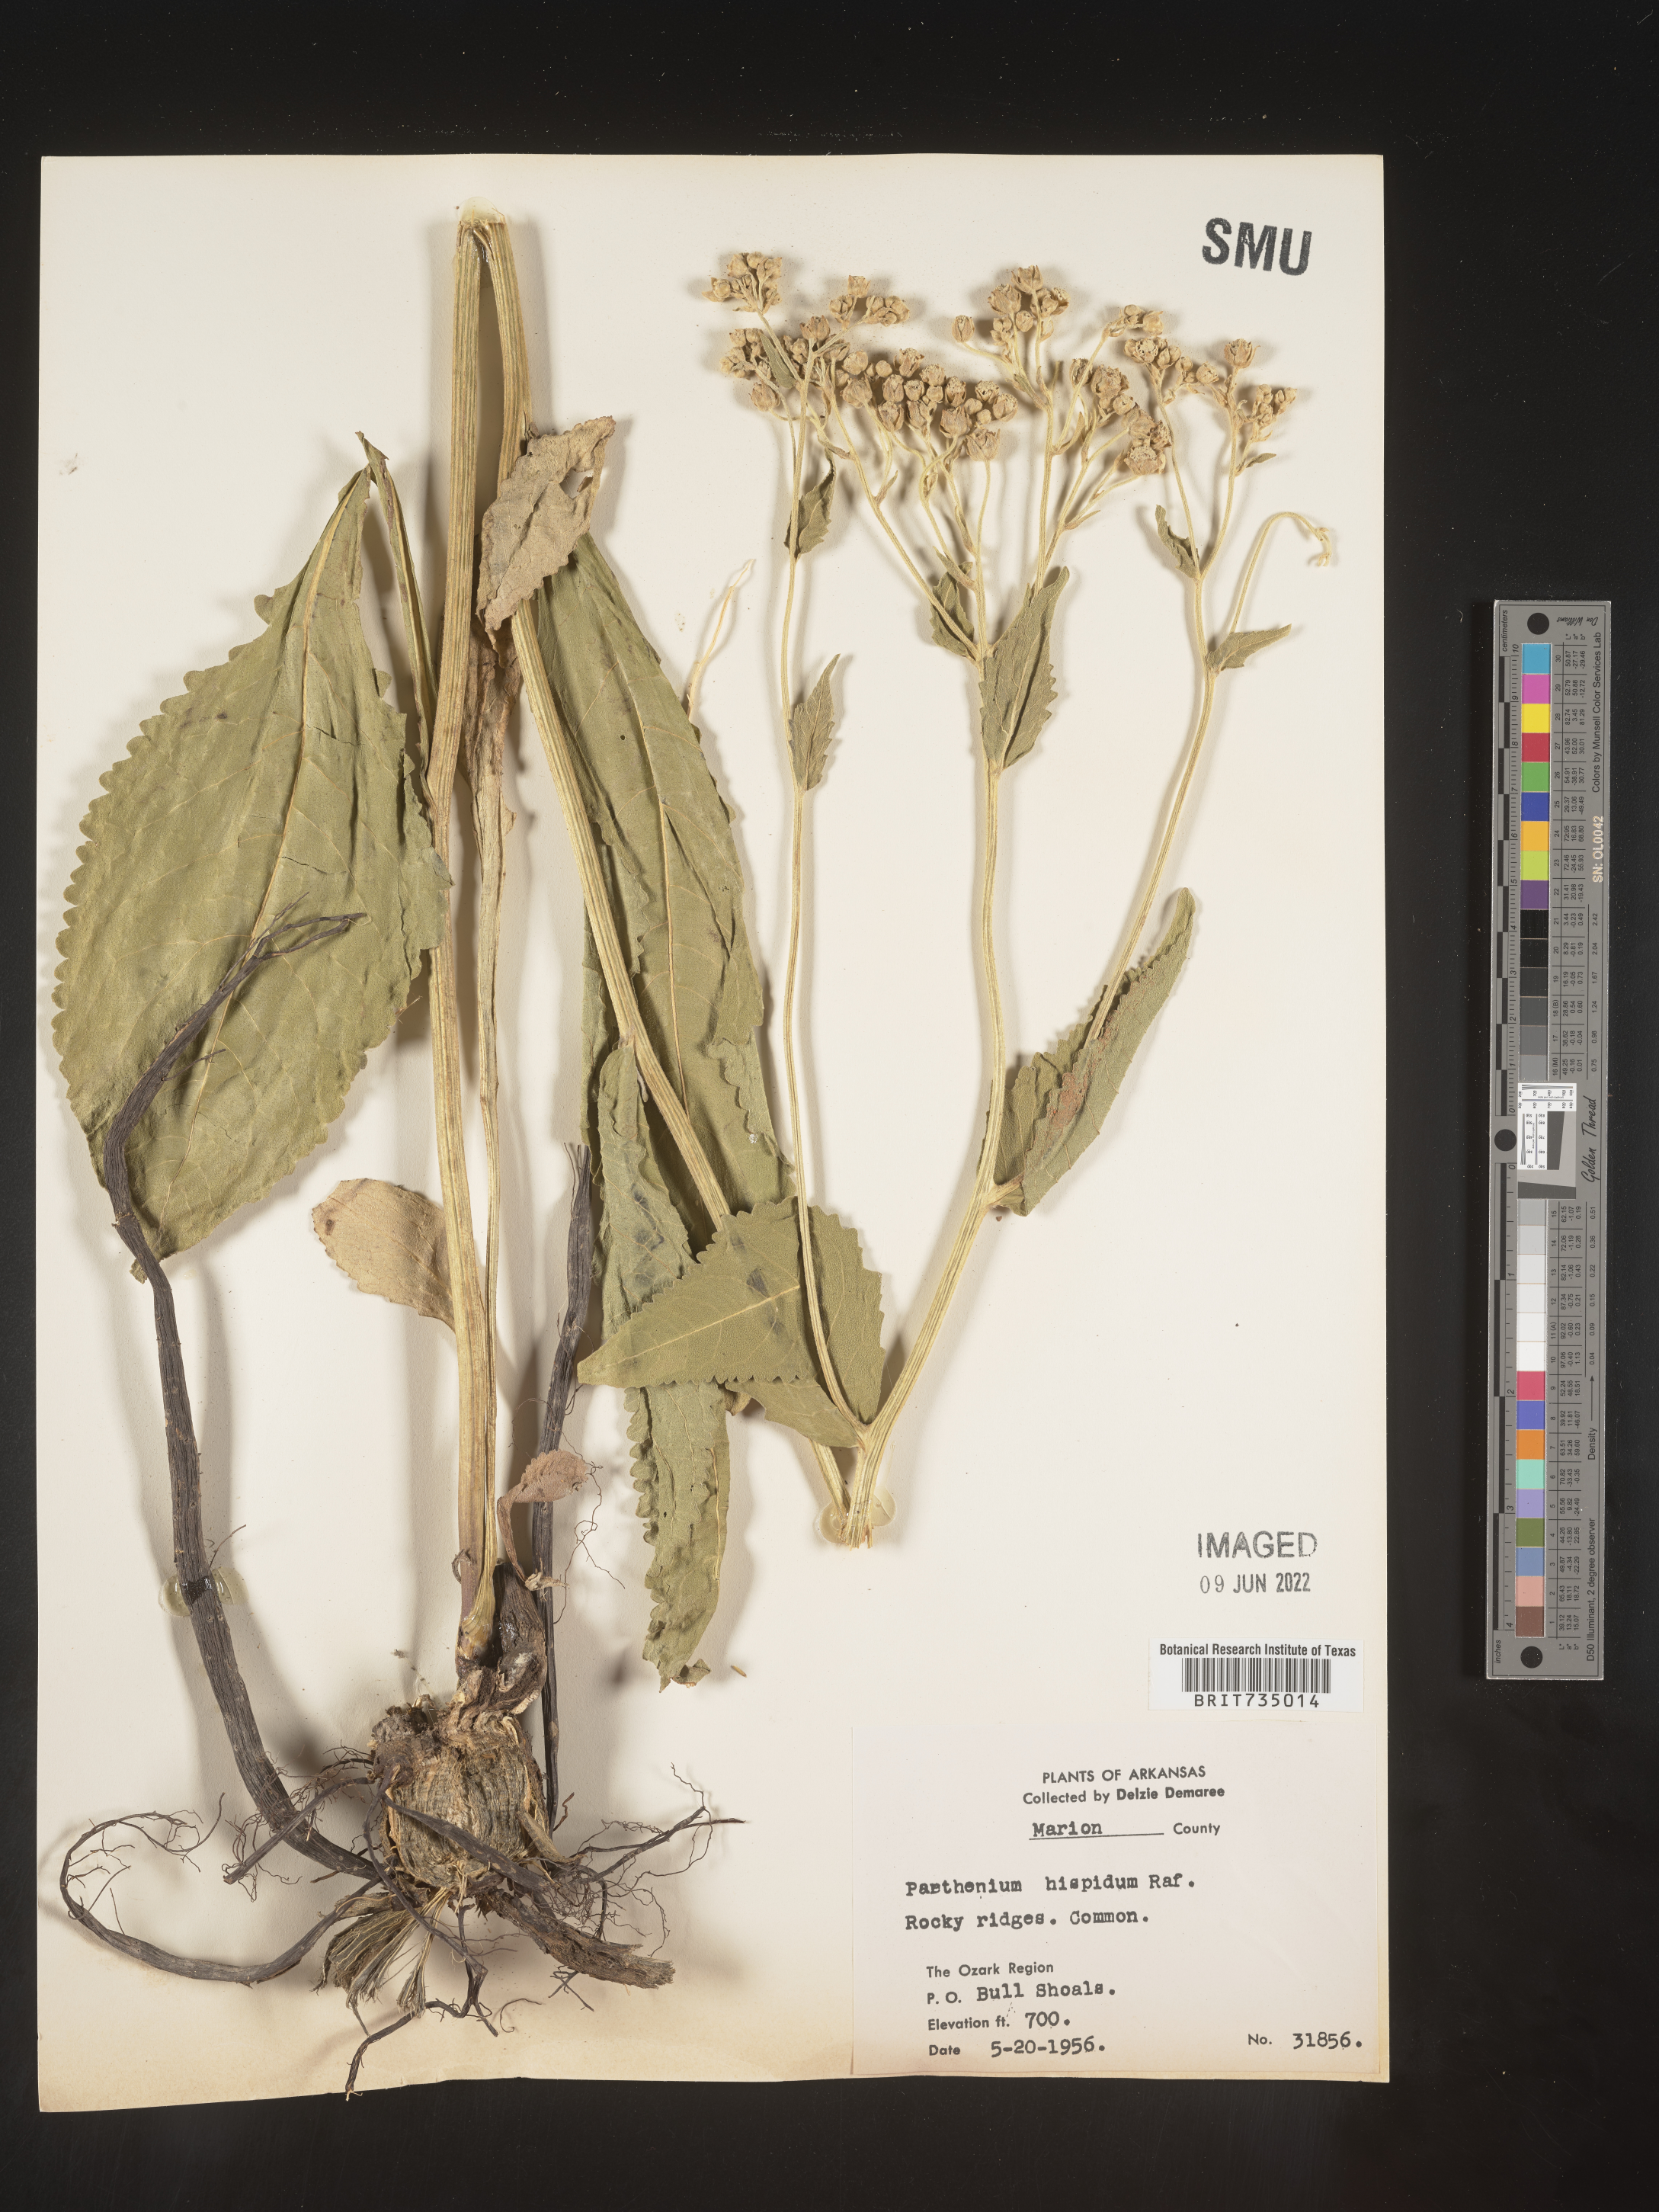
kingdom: Plantae
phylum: Tracheophyta
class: Magnoliopsida
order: Asterales
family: Asteraceae
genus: Parthenium
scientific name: Parthenium hispidum
